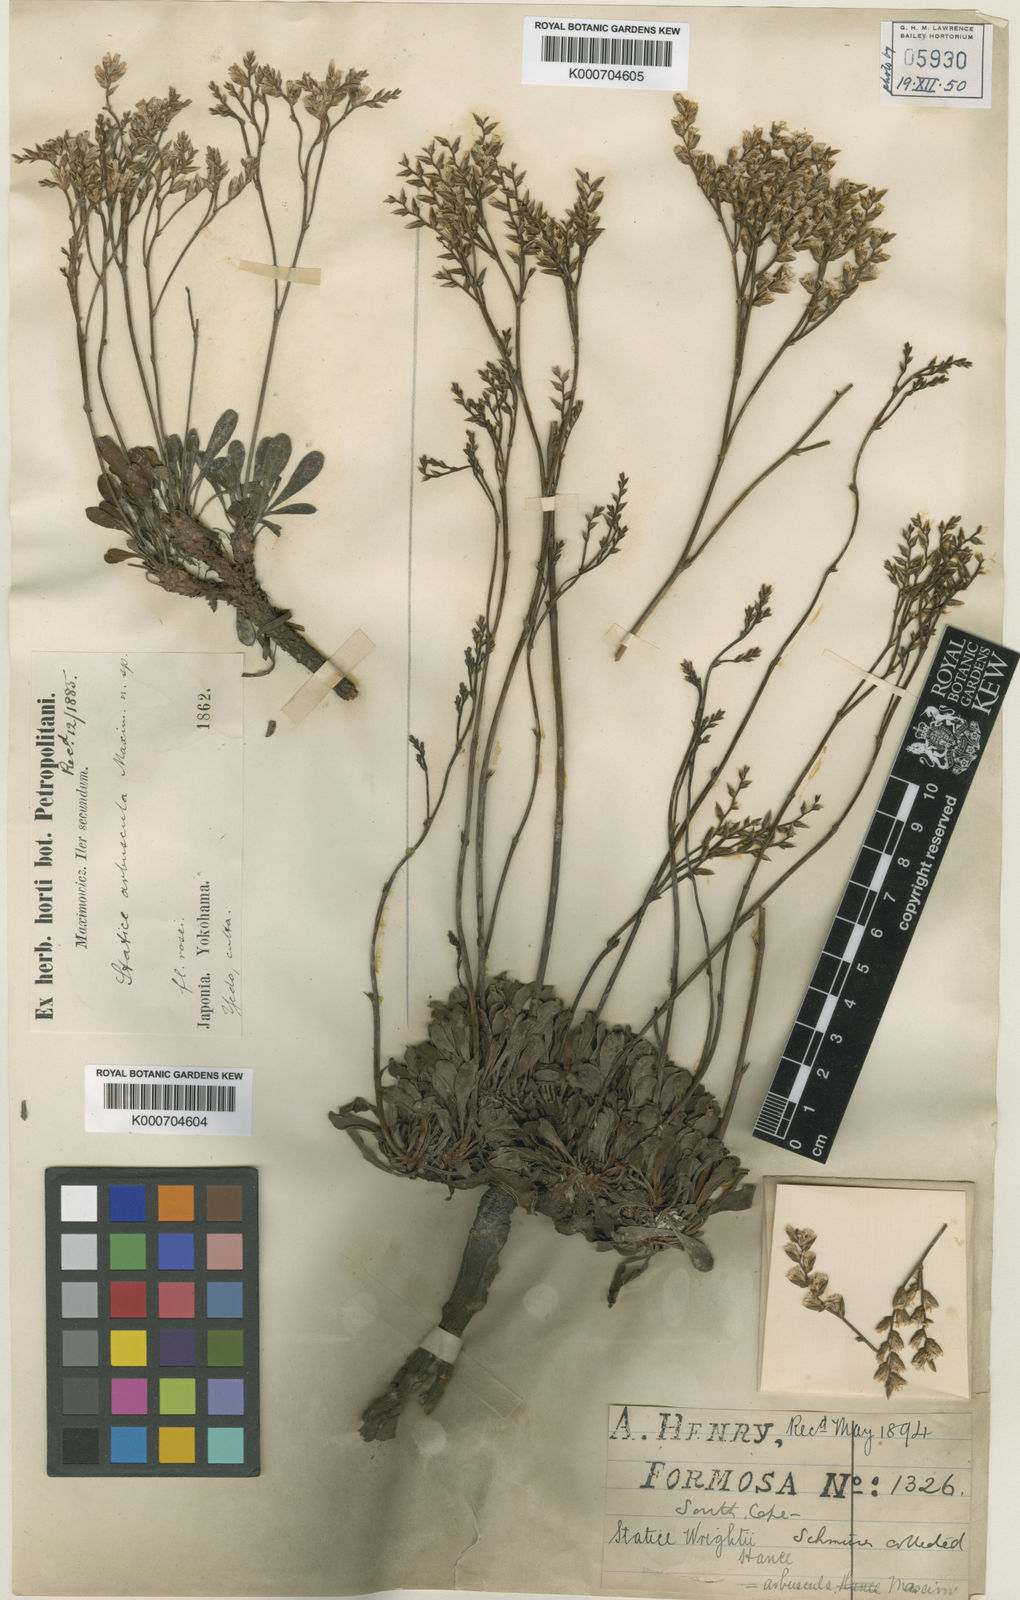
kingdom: Plantae
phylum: Tracheophyta
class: Magnoliopsida
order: Caryophyllales
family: Plumbaginaceae
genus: Limonium
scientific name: Limonium wrightii
